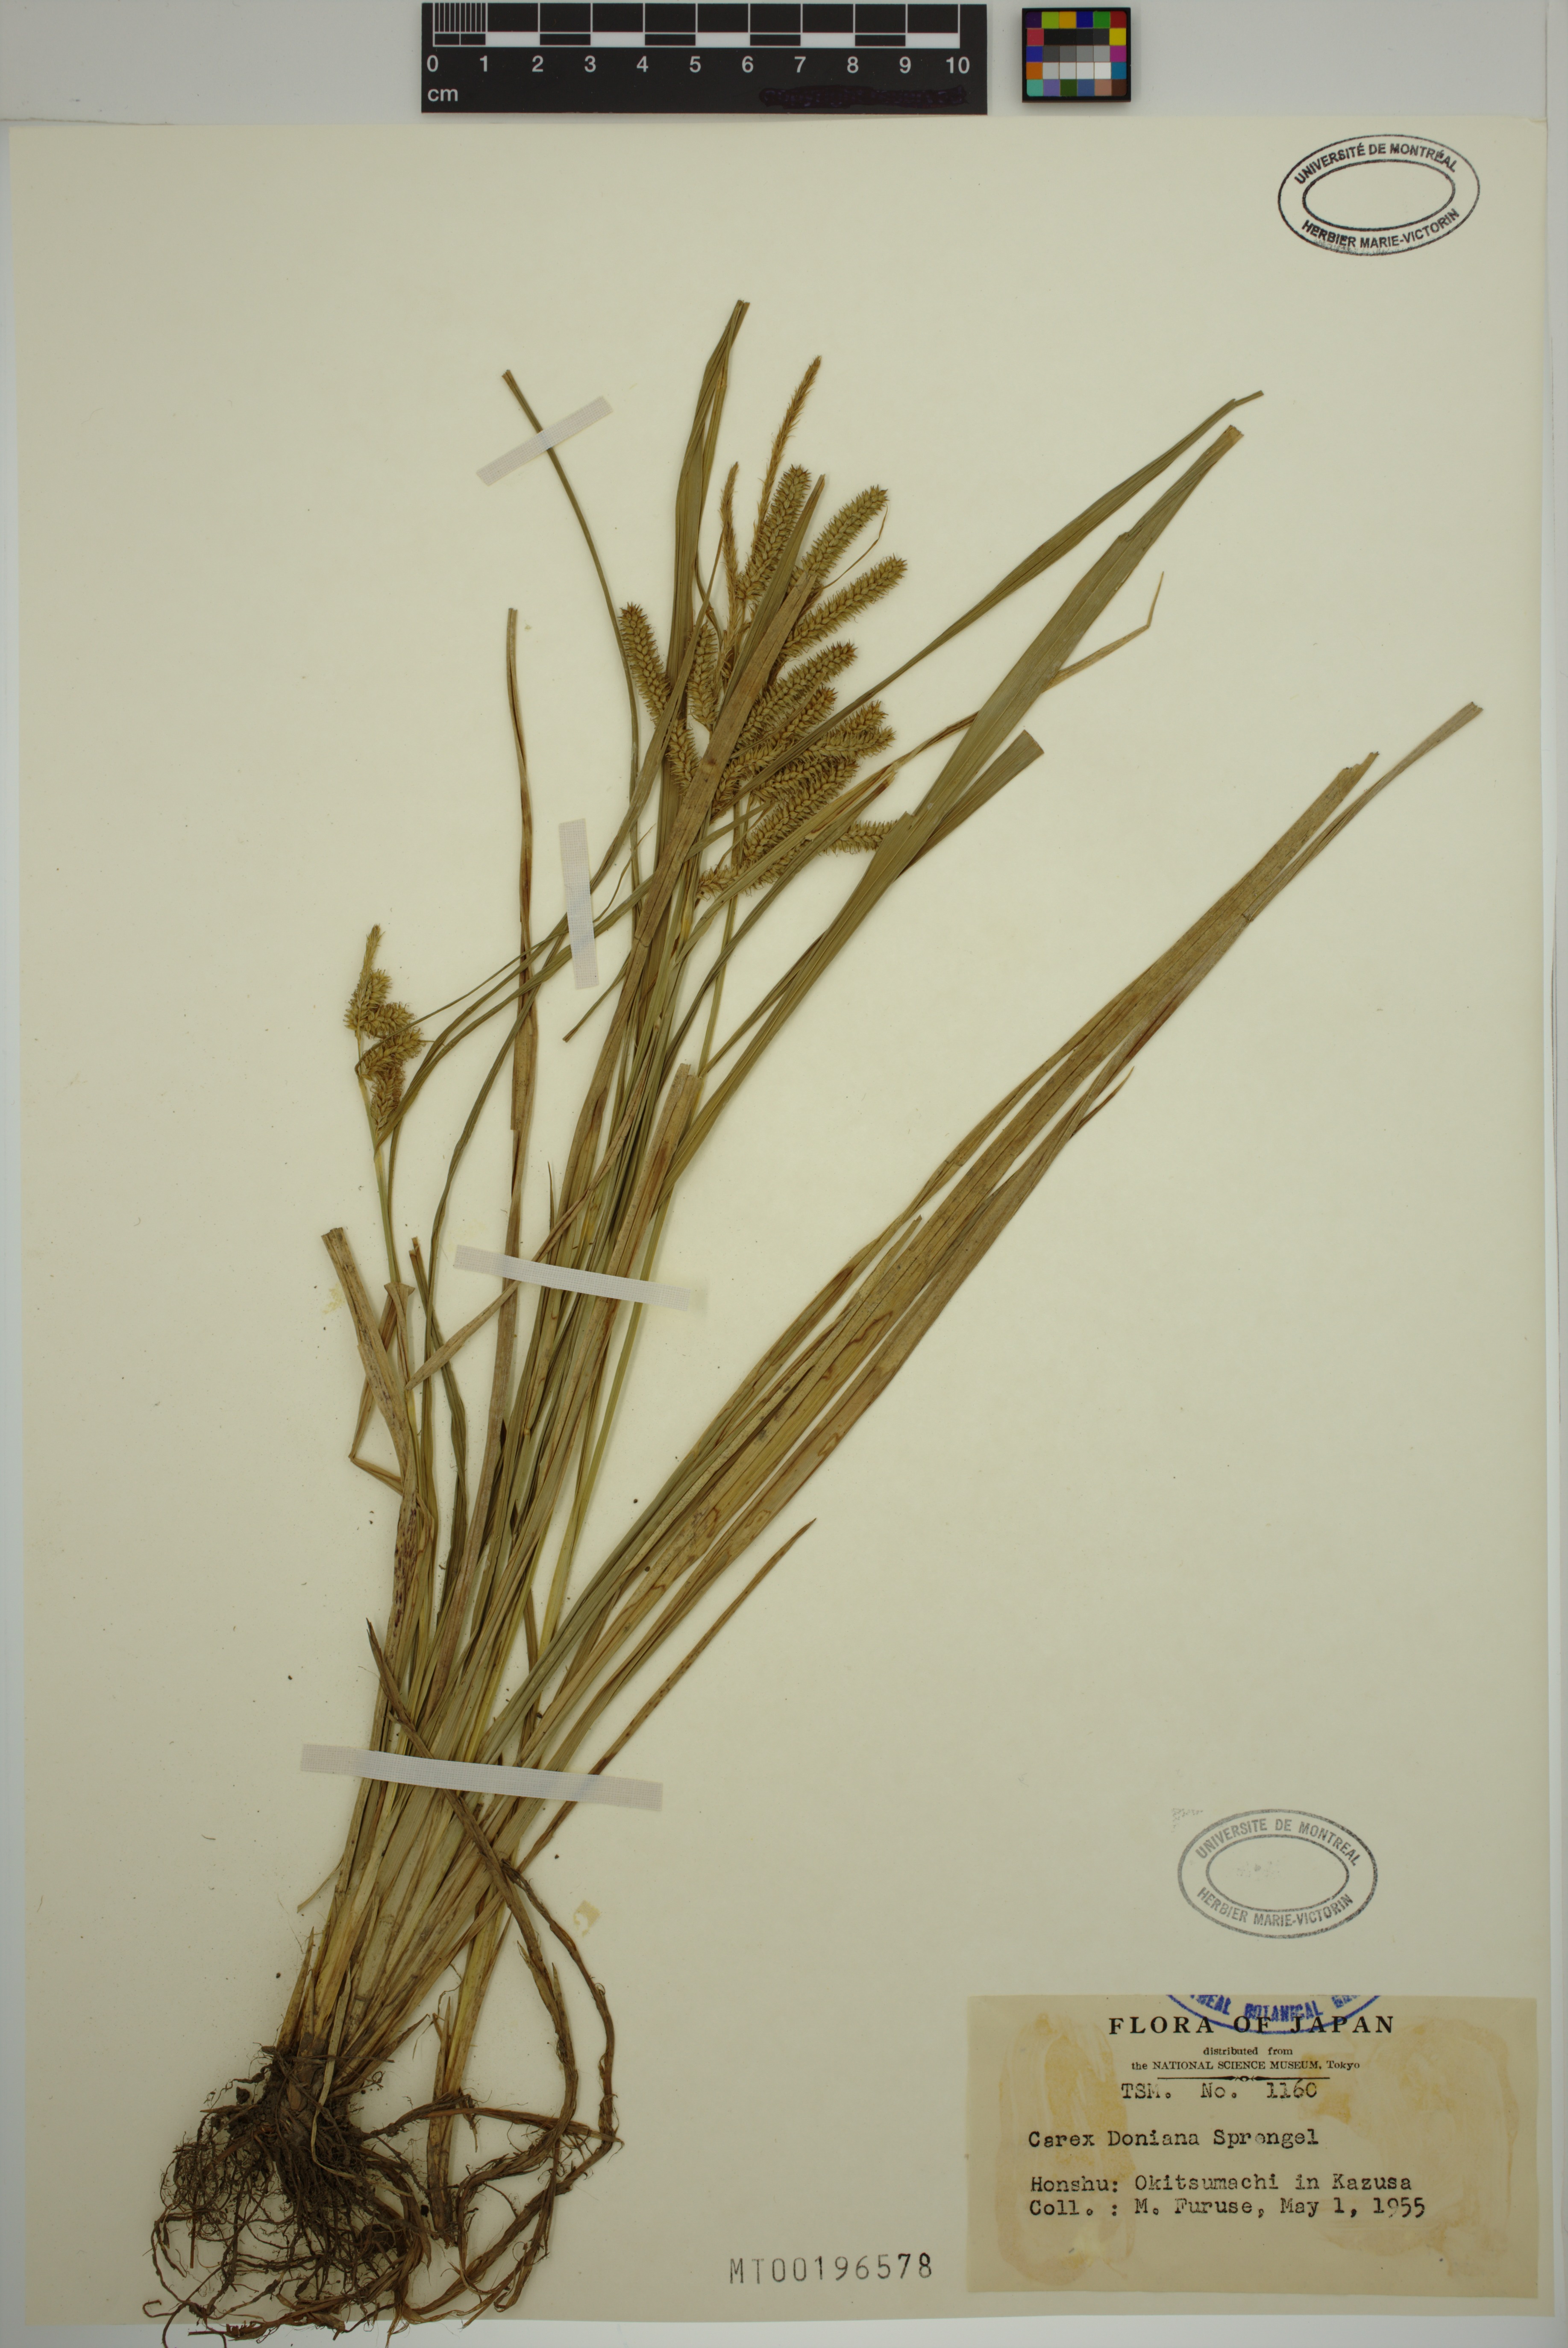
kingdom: Plantae
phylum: Tracheophyta
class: Liliopsida
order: Poales
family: Cyperaceae
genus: Carex
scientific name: Carex doniana
